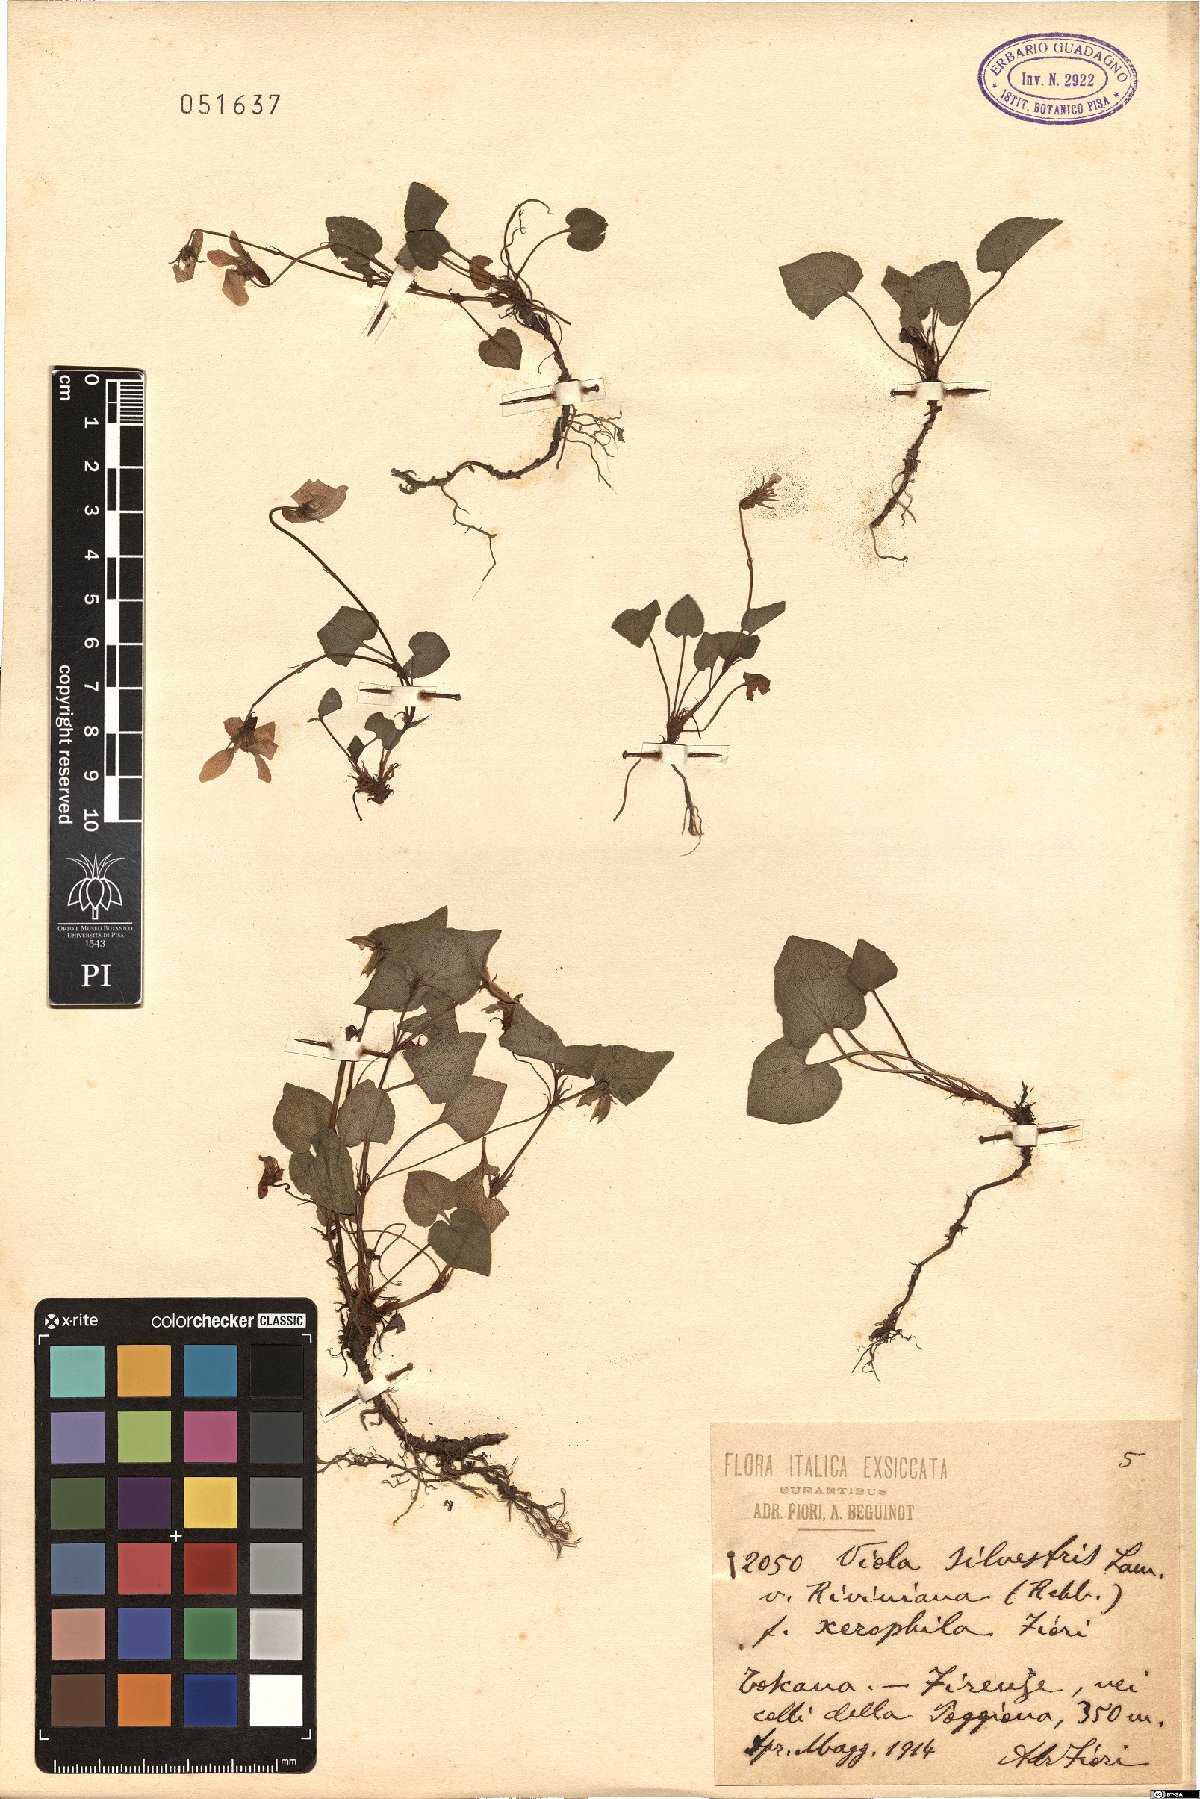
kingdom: Plantae
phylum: Tracheophyta
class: Magnoliopsida
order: Malpighiales
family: Violaceae
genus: Viola
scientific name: Viola riviniana
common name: Common dog-violet
